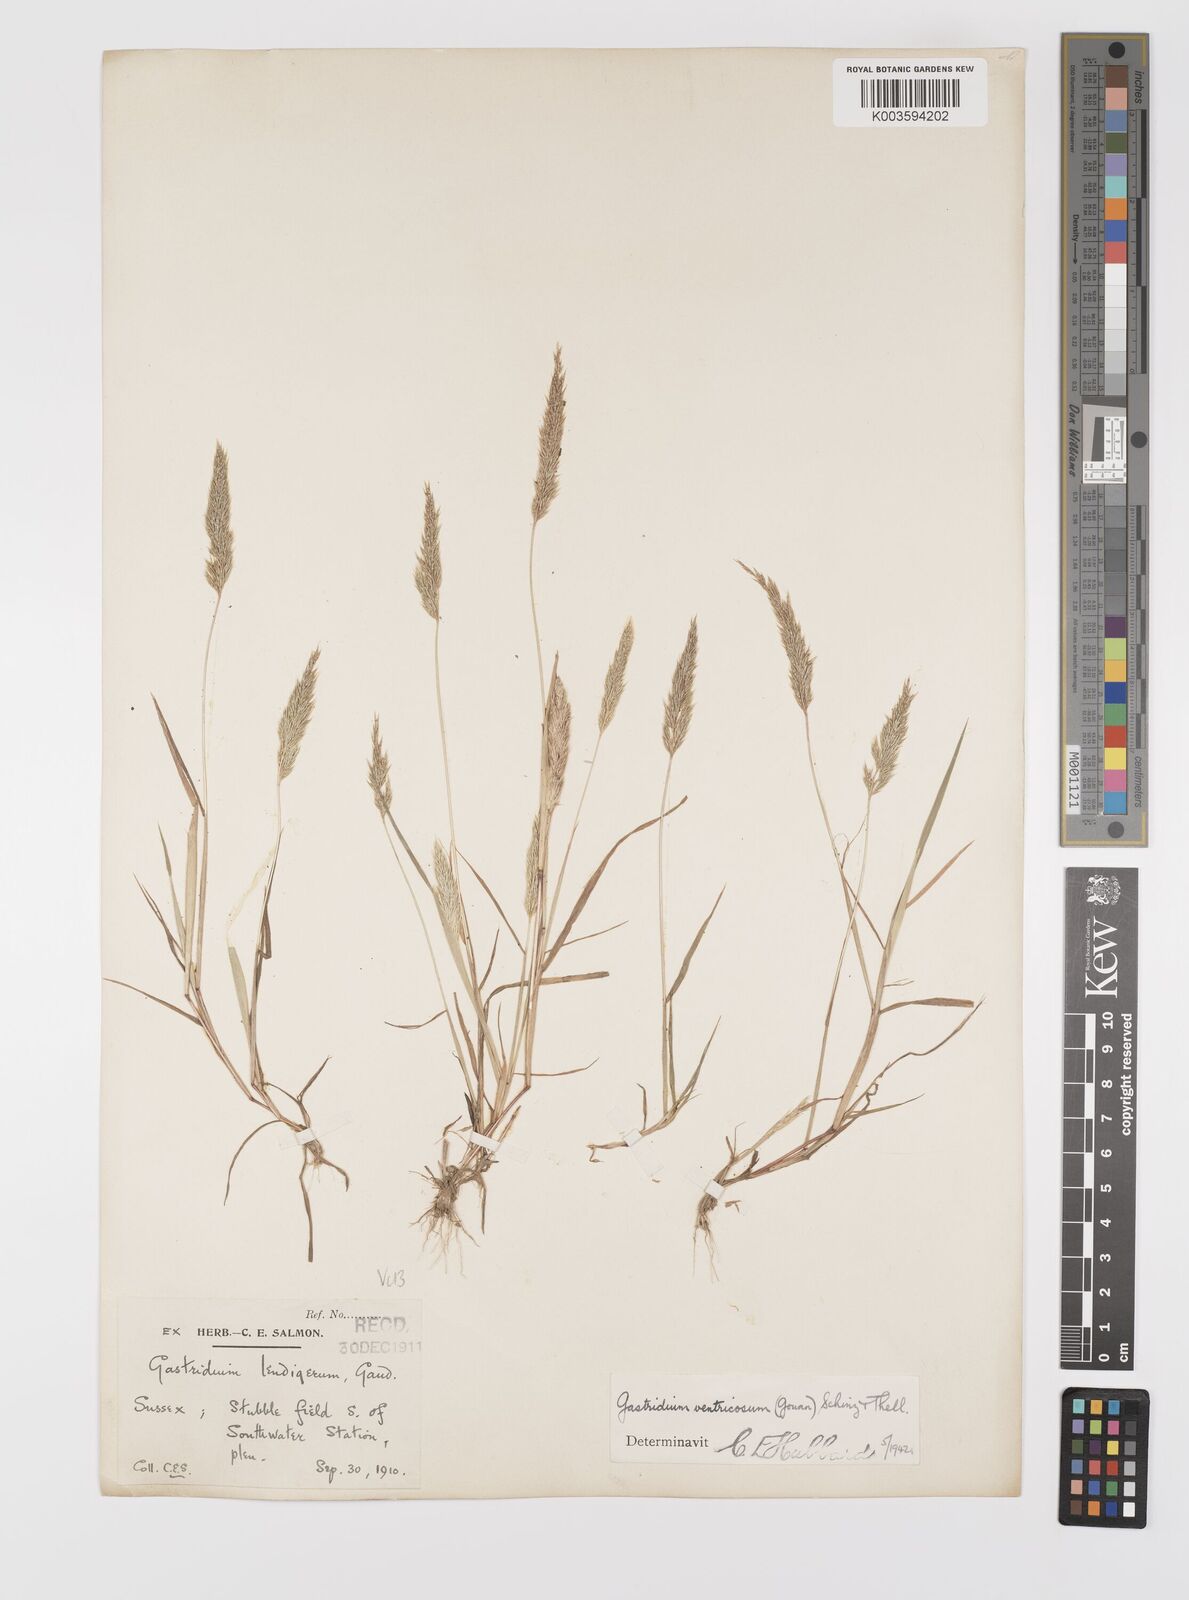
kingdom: Plantae
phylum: Tracheophyta
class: Liliopsida
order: Poales
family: Poaceae
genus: Gastridium
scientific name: Gastridium ventricosum
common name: Nit-grass
